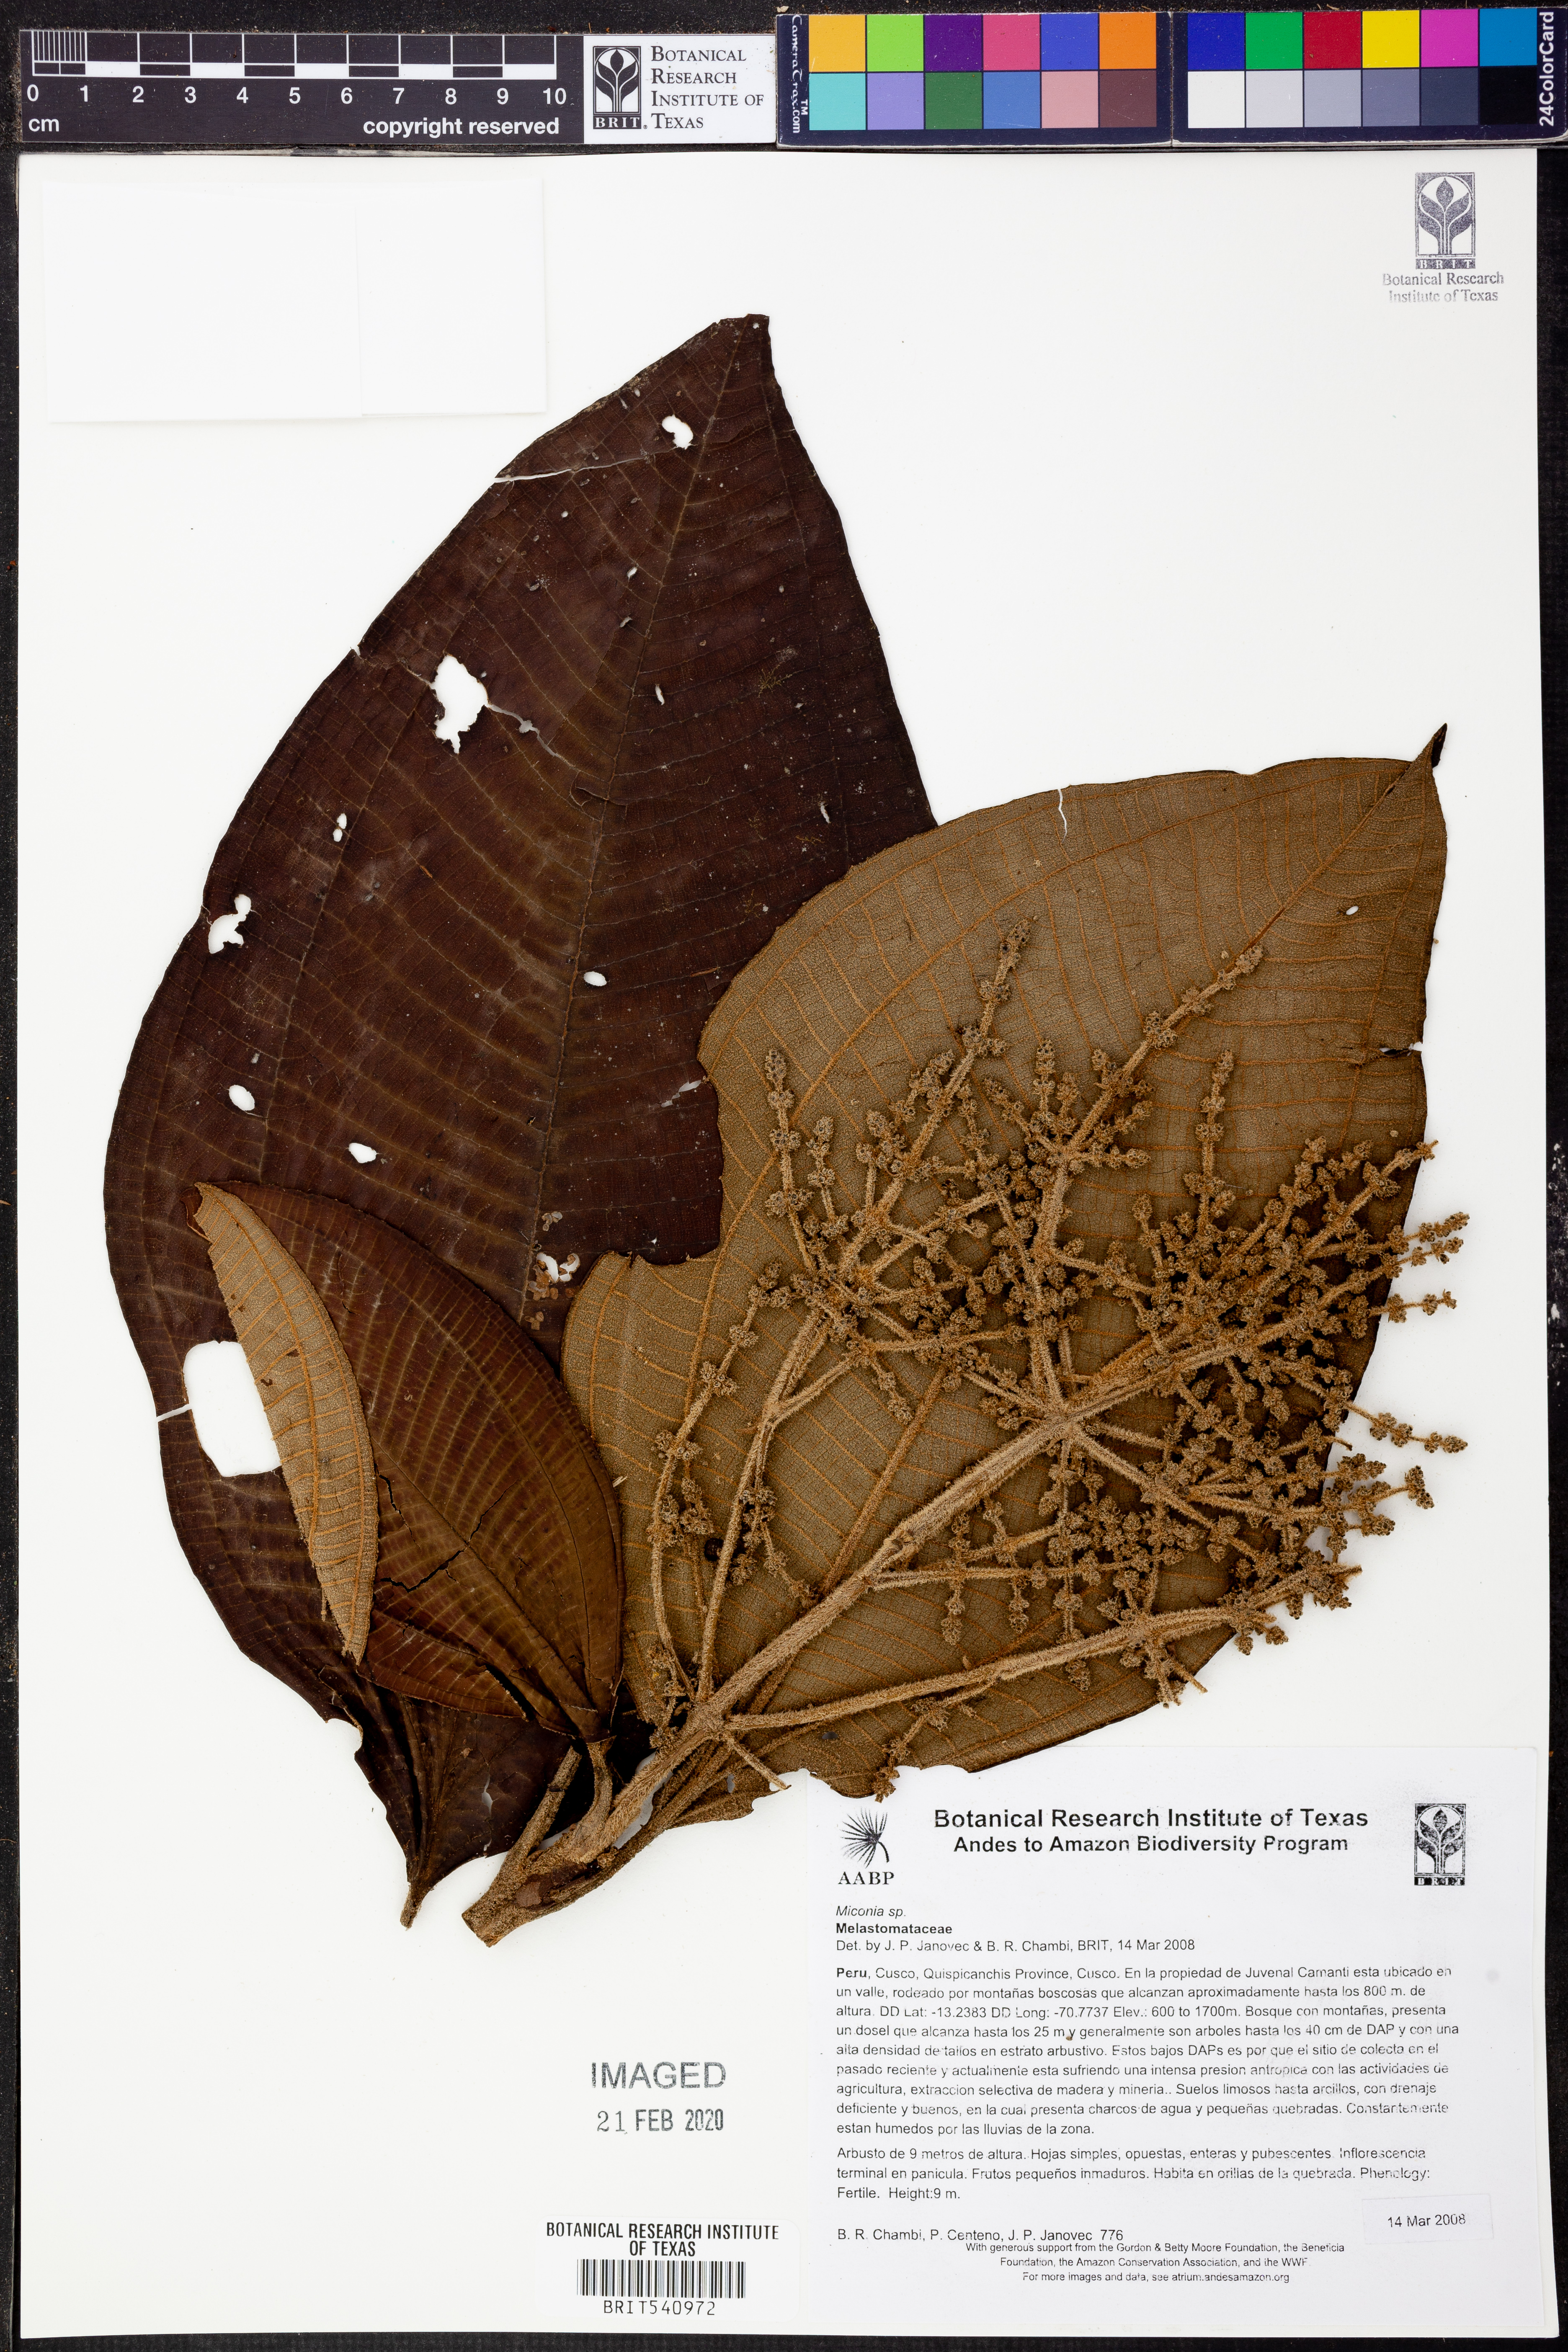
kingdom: Plantae
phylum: Tracheophyta
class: Magnoliopsida
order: Myrtales
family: Melastomataceae
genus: Miconia
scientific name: Miconia
